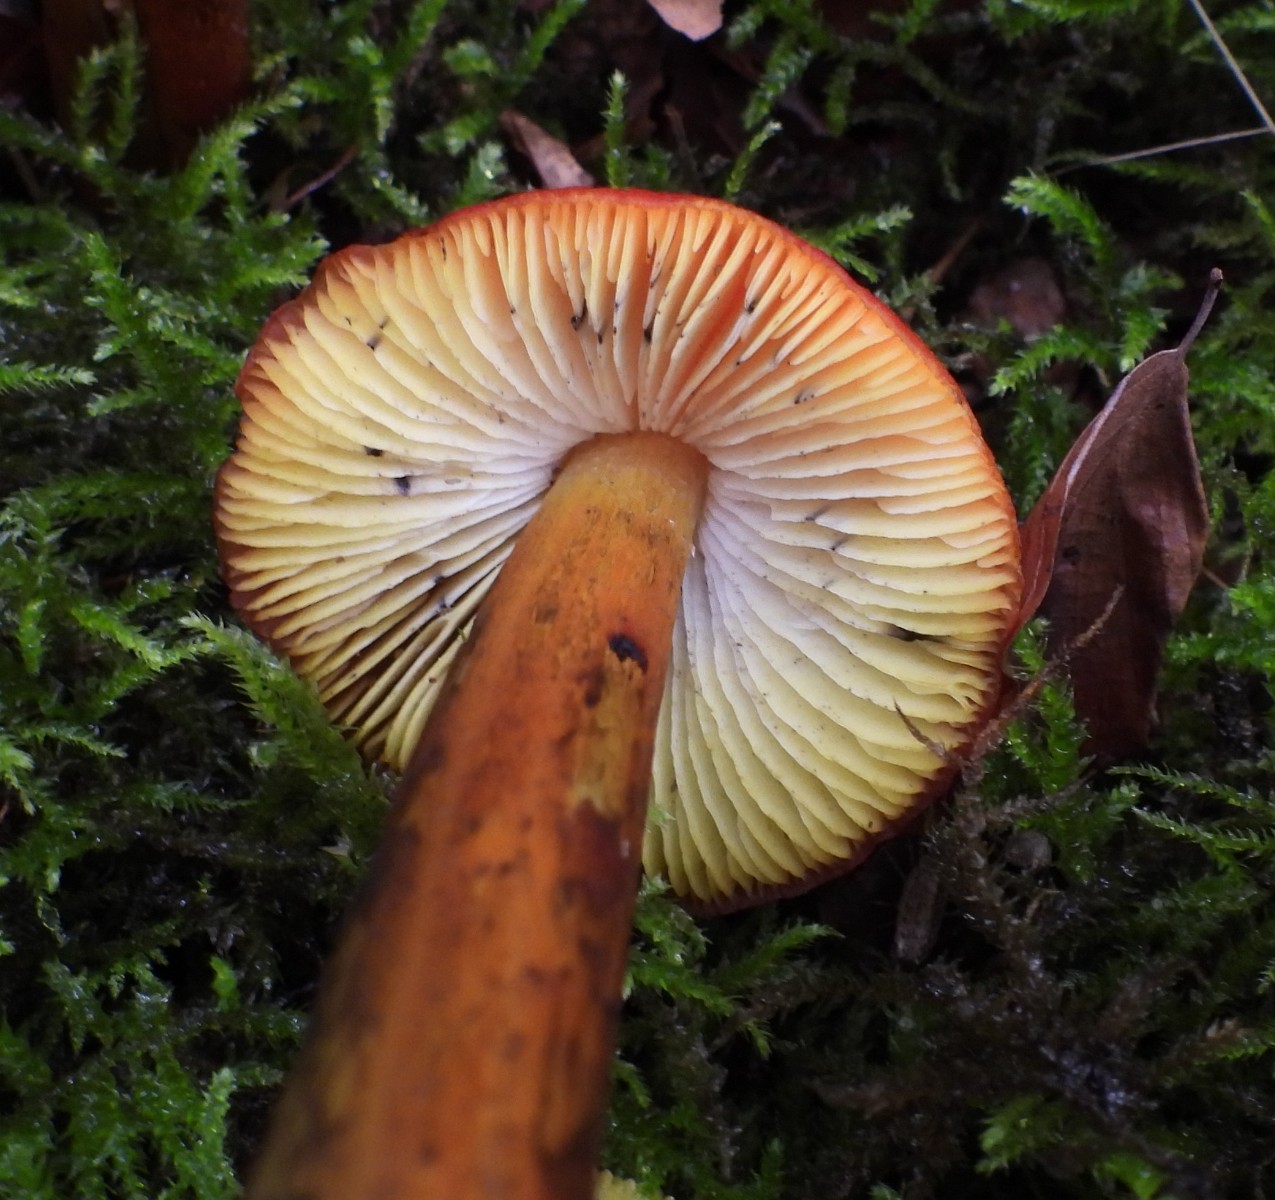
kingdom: Fungi
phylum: Basidiomycota
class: Agaricomycetes
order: Agaricales
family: Hygrophoraceae
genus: Hygrocybe
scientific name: Hygrocybe conica
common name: kegle-vokshat
